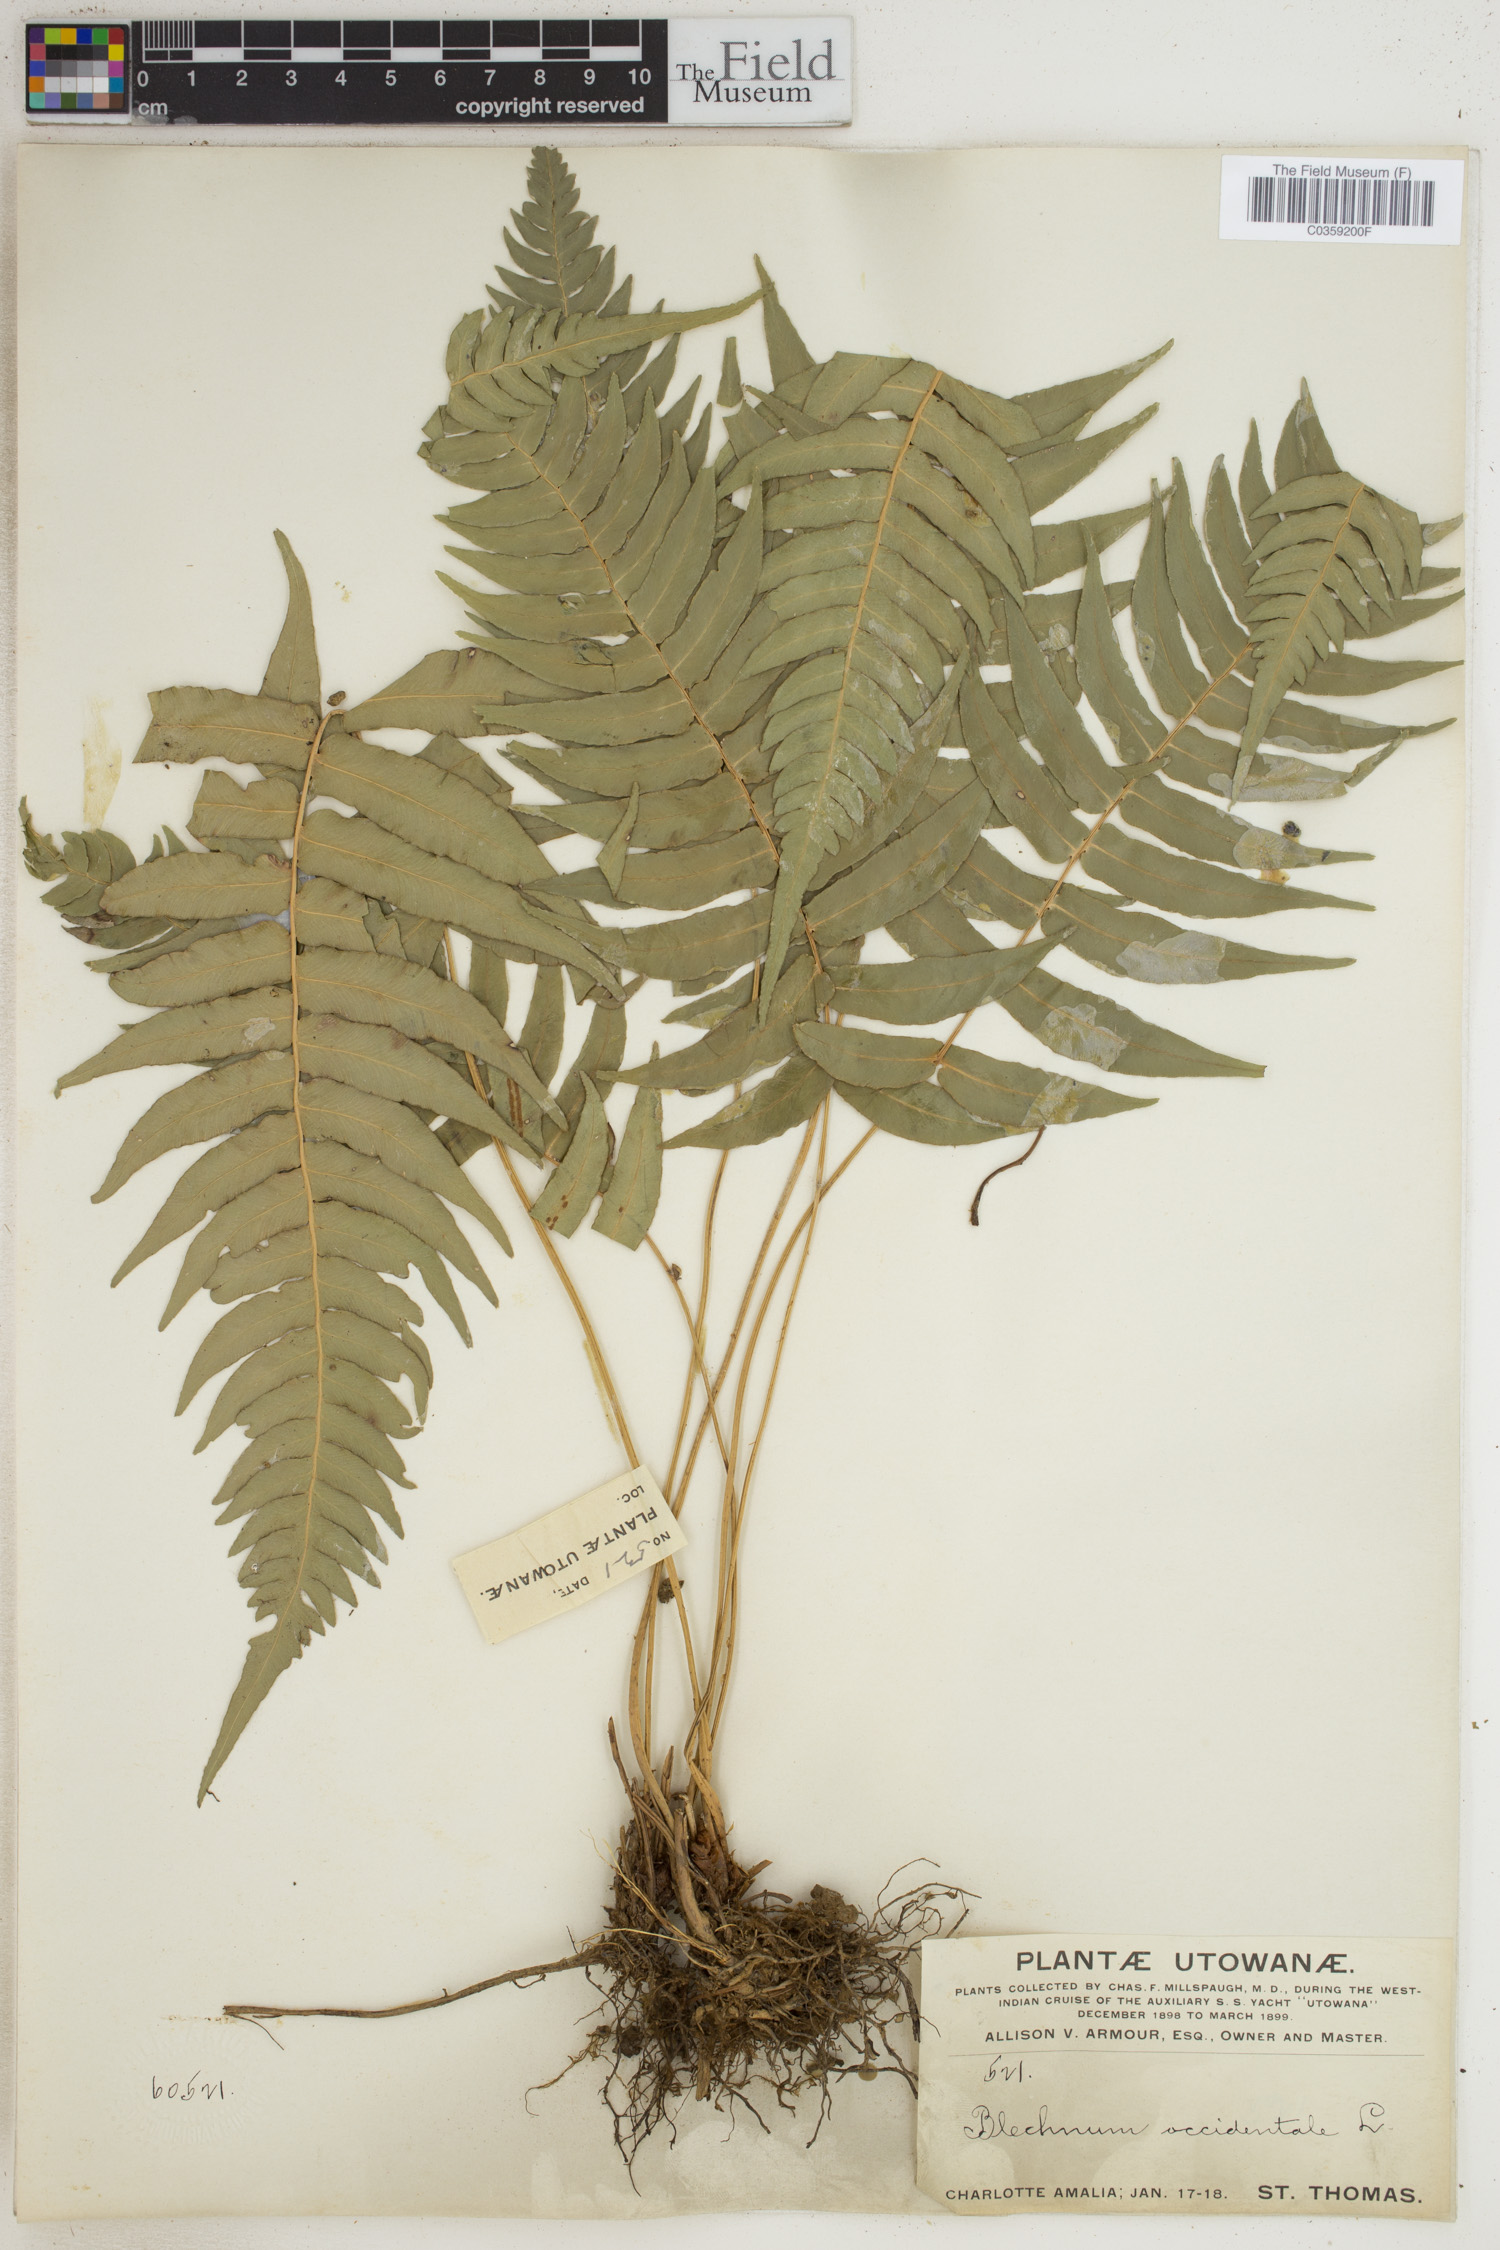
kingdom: Plantae
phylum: Tracheophyta
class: Polypodiopsida
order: Polypodiales
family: Blechnaceae
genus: Blechnum
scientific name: Blechnum occidentale
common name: Hammock fern
